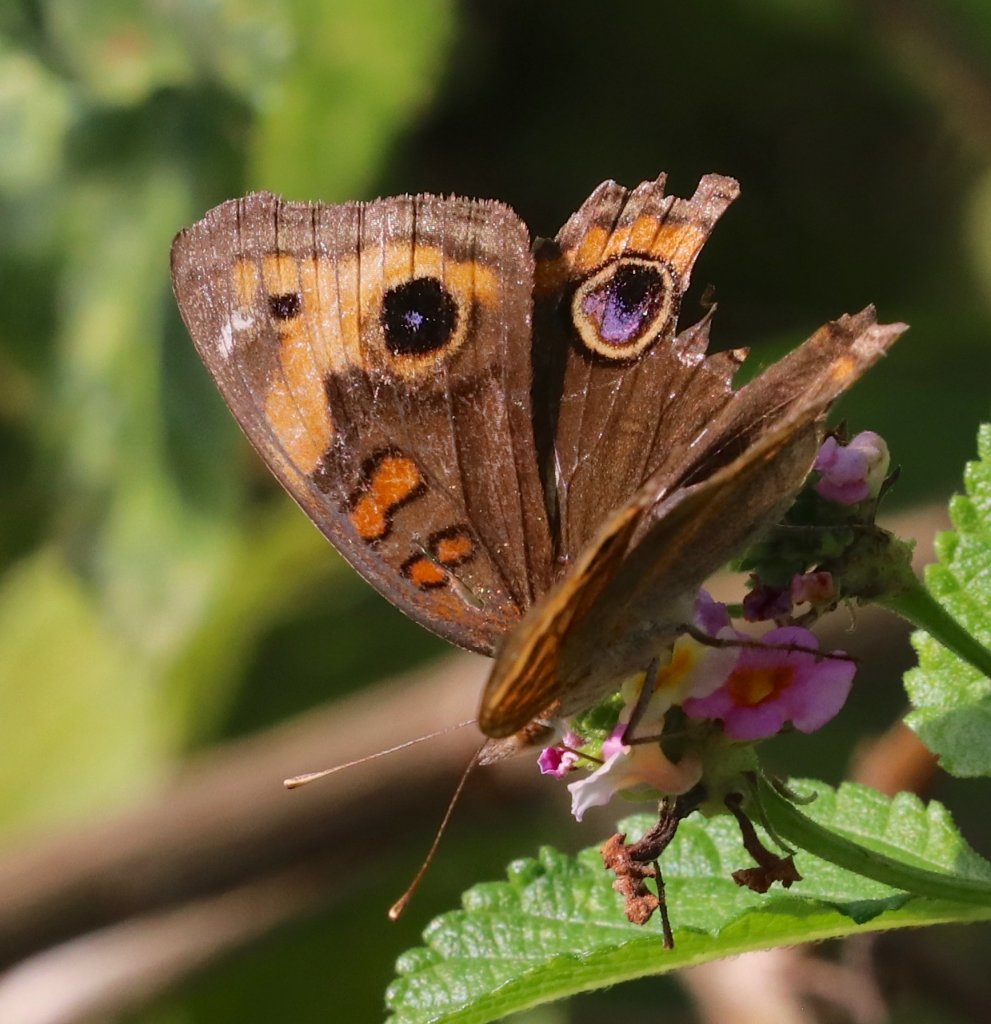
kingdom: Animalia
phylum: Arthropoda
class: Insecta
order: Lepidoptera
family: Nymphalidae
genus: Junonia
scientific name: Junonia coenia
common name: Common Buckeye
